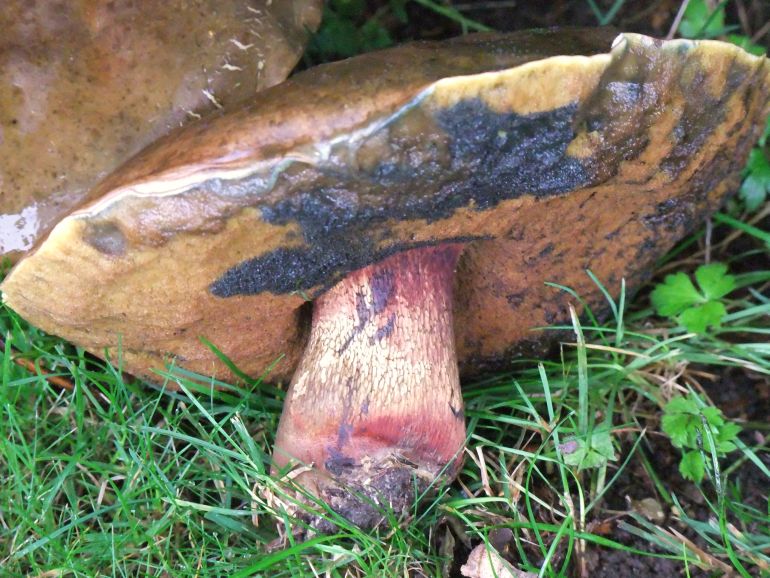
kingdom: Fungi
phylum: Basidiomycota
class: Agaricomycetes
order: Boletales
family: Boletaceae
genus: Suillellus
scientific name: Suillellus luridus
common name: netstokket indigorørhat
